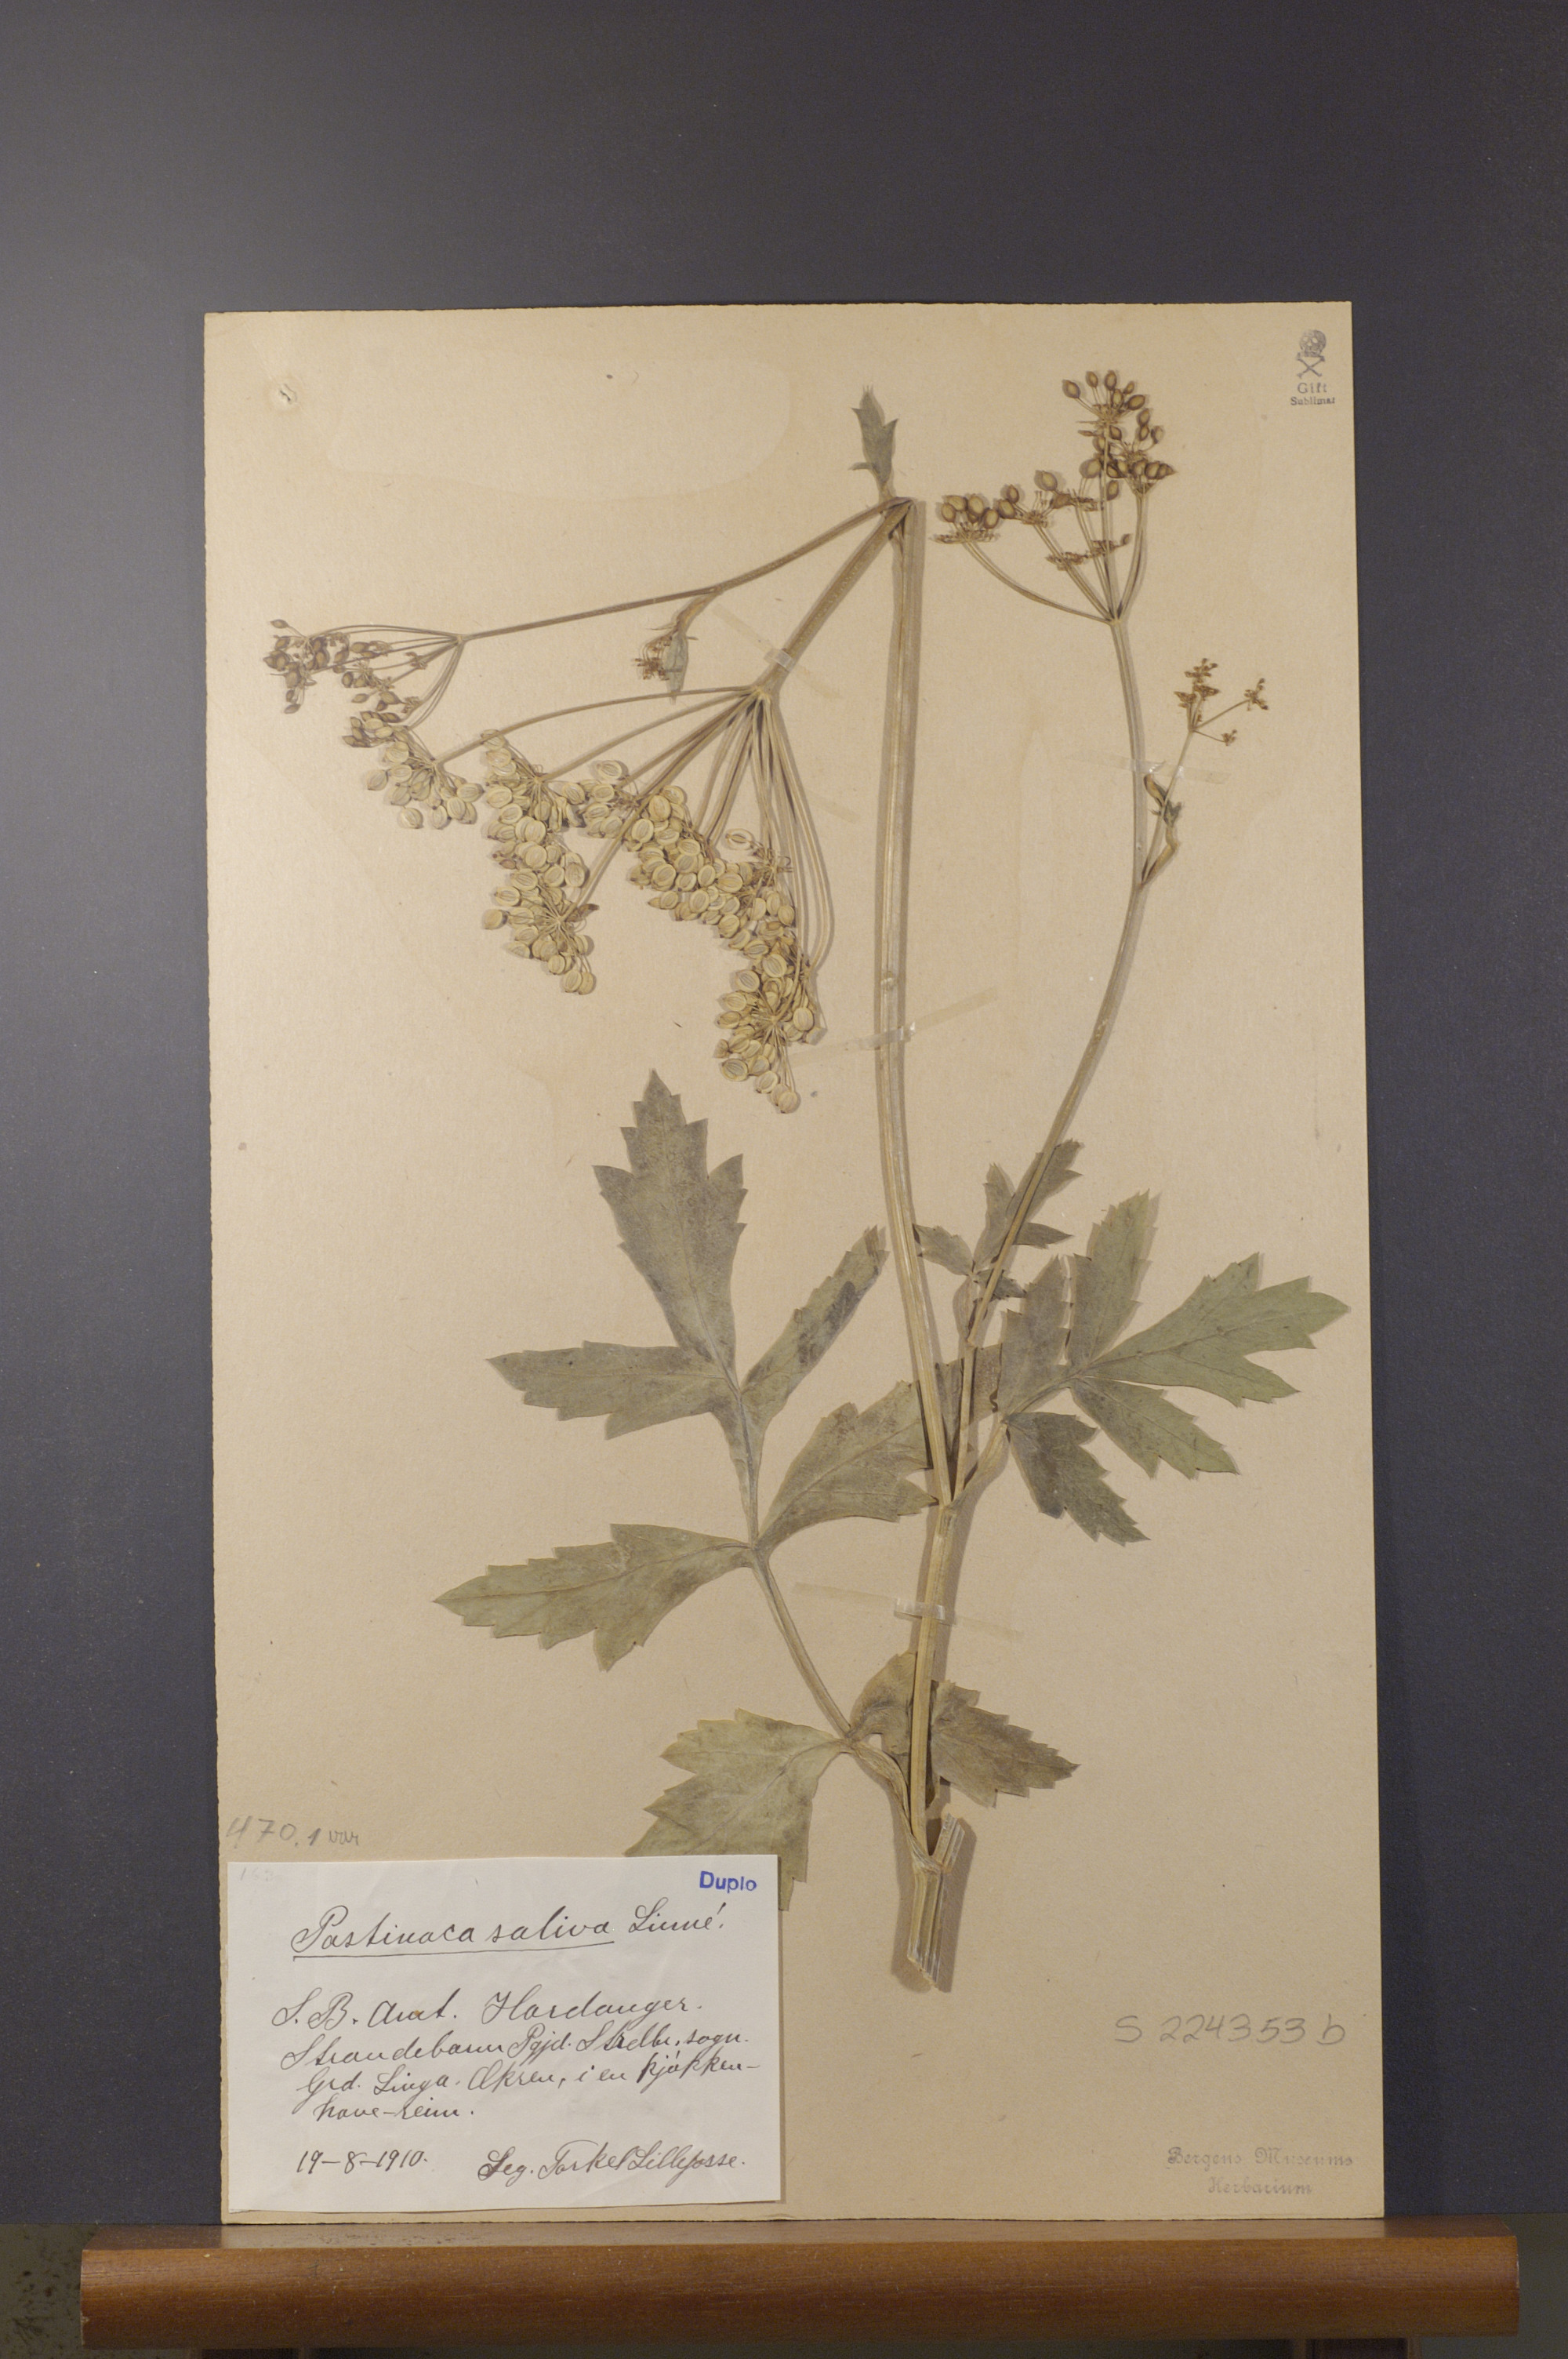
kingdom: Plantae
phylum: Tracheophyta
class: Magnoliopsida
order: Apiales
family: Apiaceae
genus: Pastinaca
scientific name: Pastinaca sativa
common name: Wild parsnip
